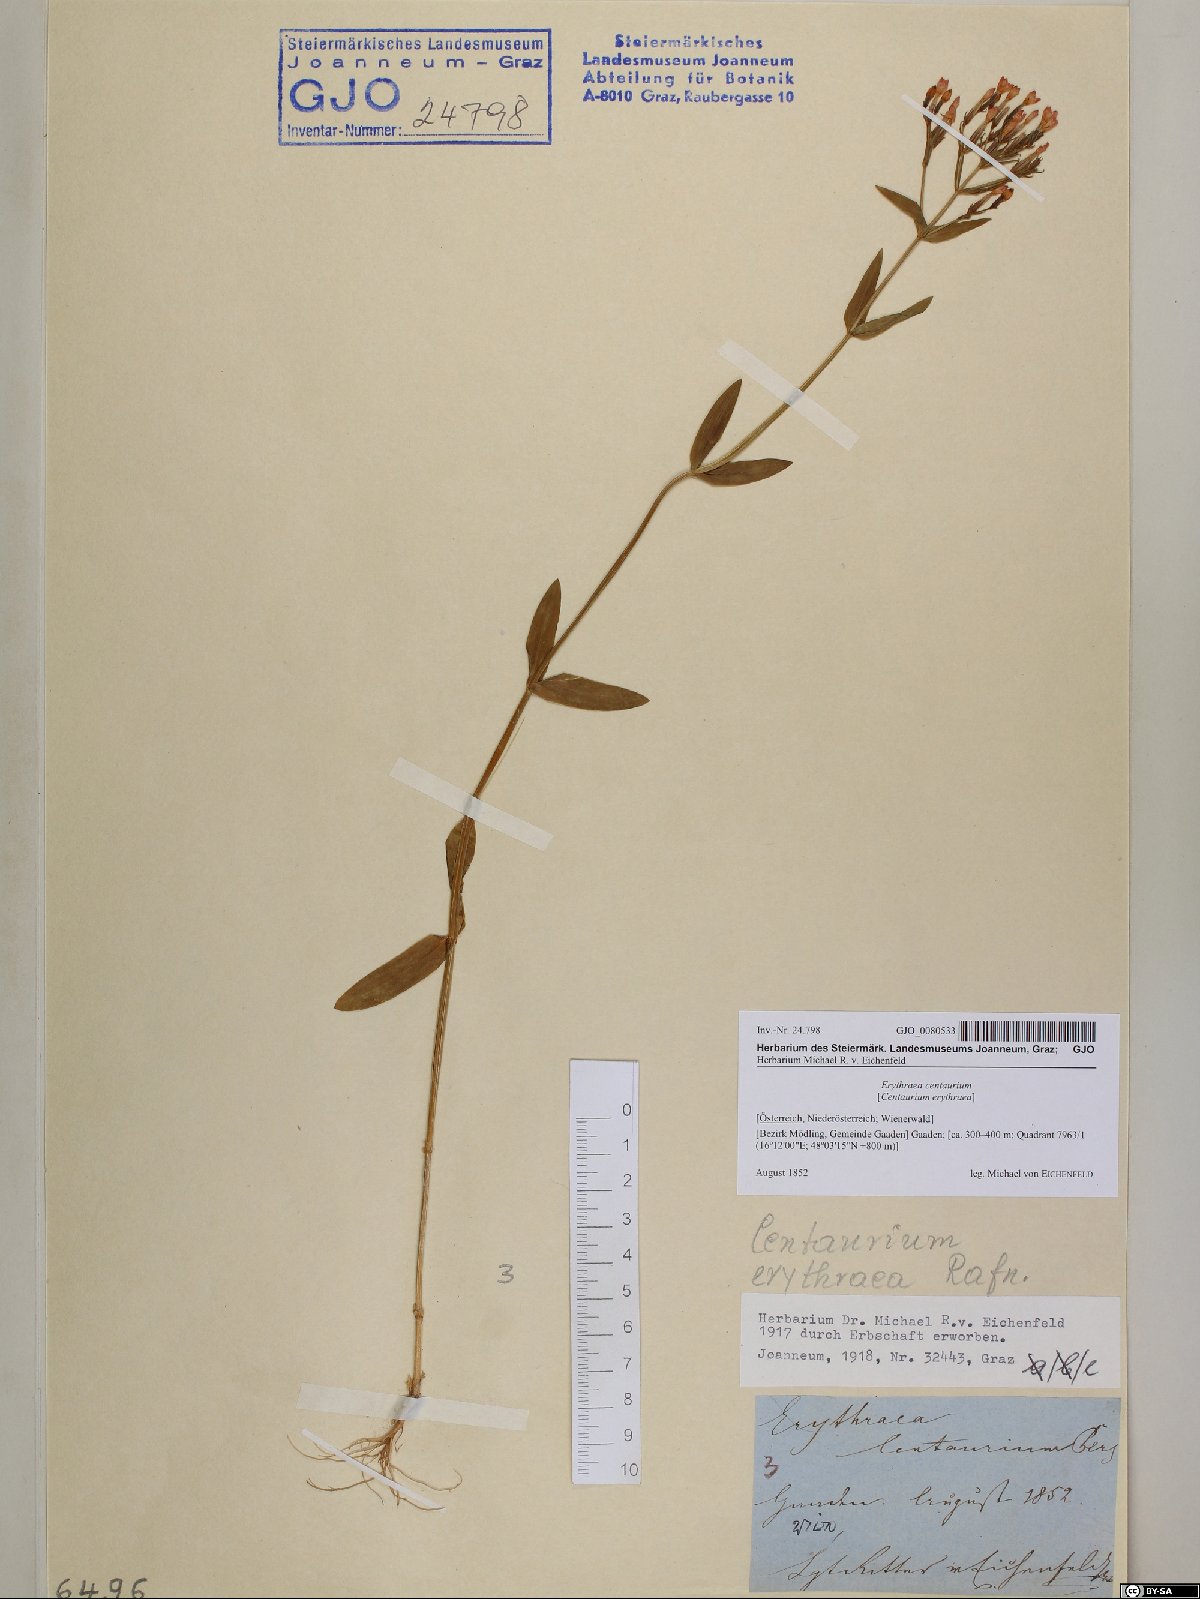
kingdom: Plantae
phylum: Tracheophyta
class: Magnoliopsida
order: Gentianales
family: Gentianaceae
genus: Centaurium
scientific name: Centaurium erythraea
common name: Common centaury
